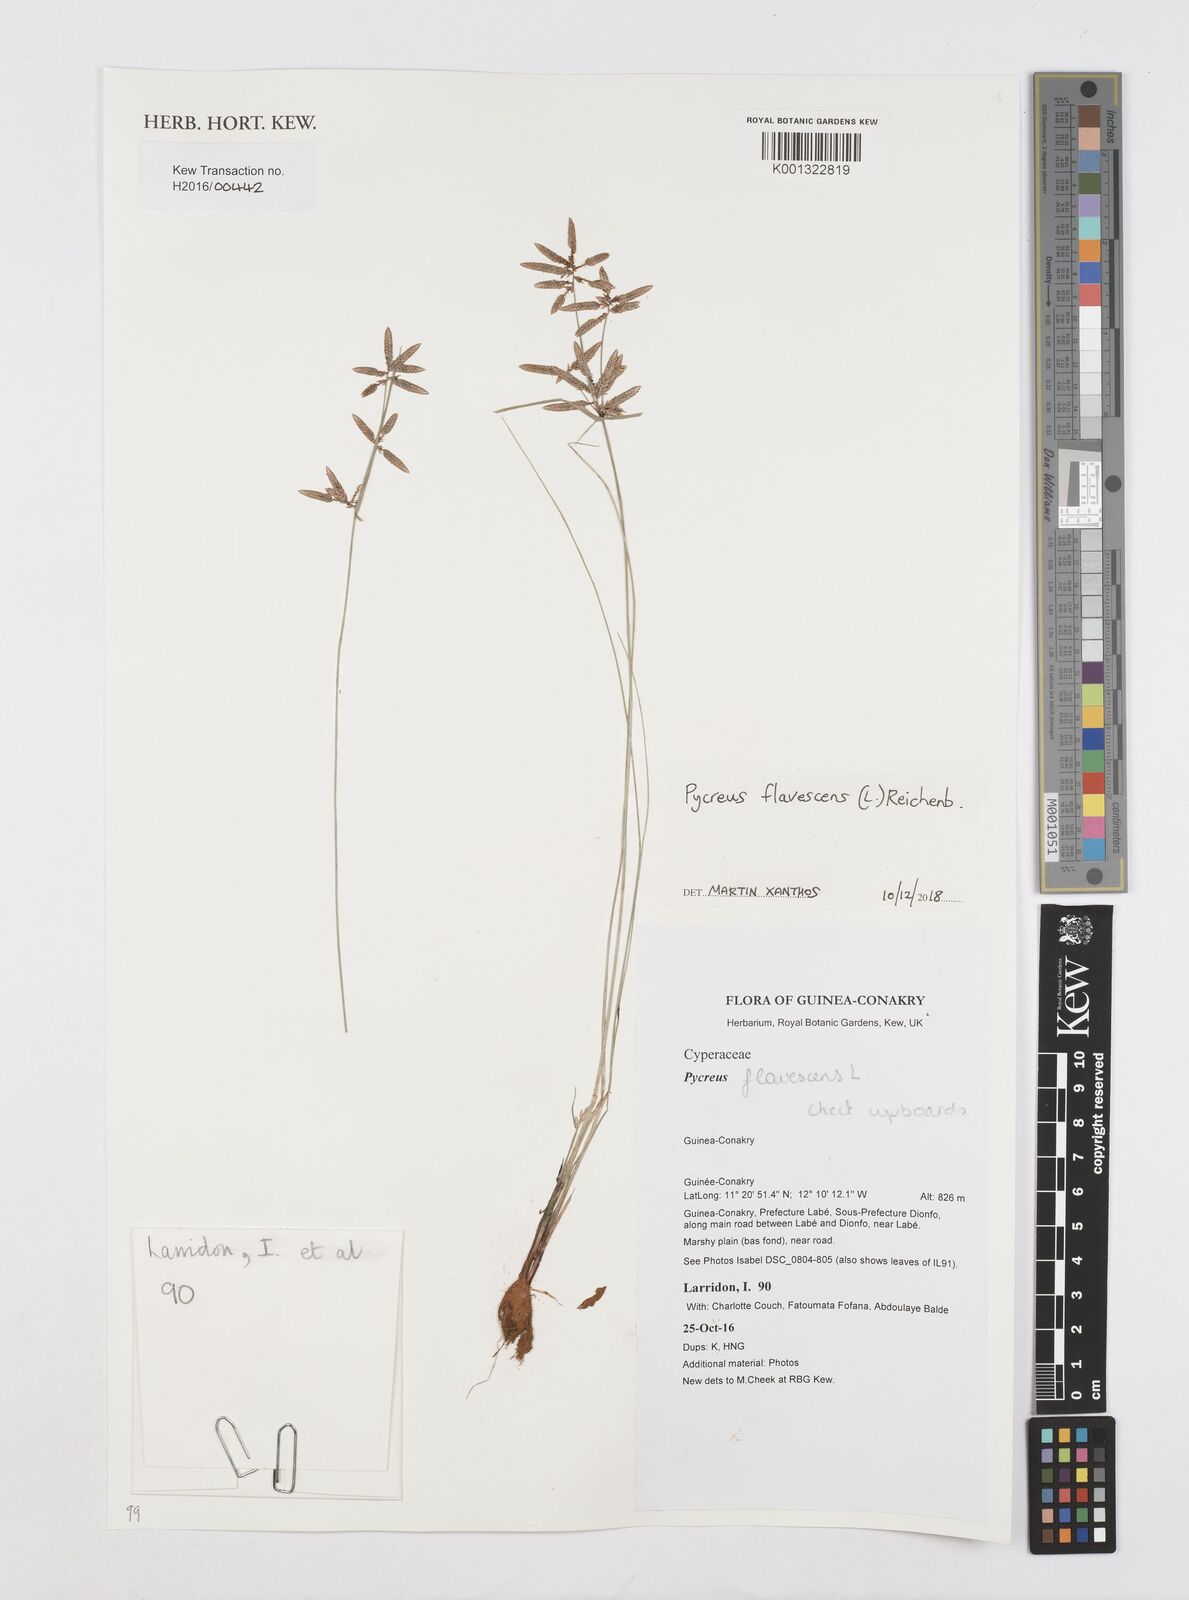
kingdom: Plantae
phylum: Tracheophyta
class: Liliopsida
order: Poales
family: Cyperaceae
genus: Cyperus
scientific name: Cyperus flavescens
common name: Yellow galingale
